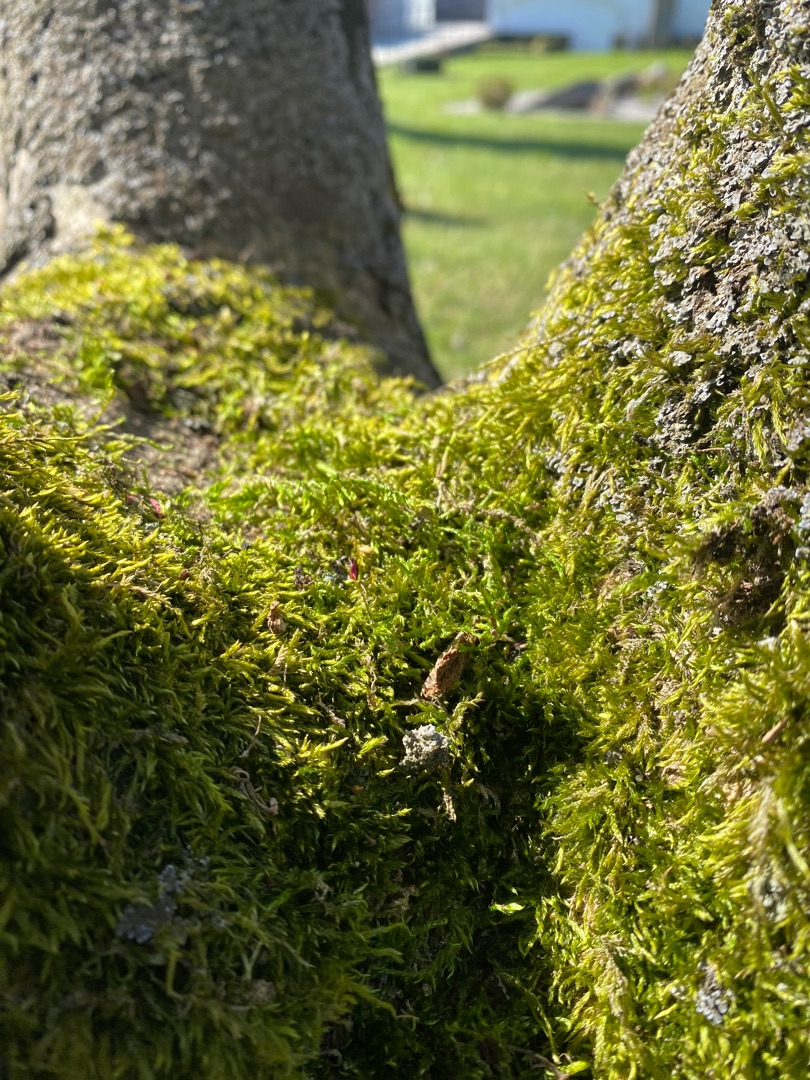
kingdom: Plantae
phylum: Bryophyta
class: Bryopsida
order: Hypnales
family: Hypnaceae
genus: Hypnum
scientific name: Hypnum
